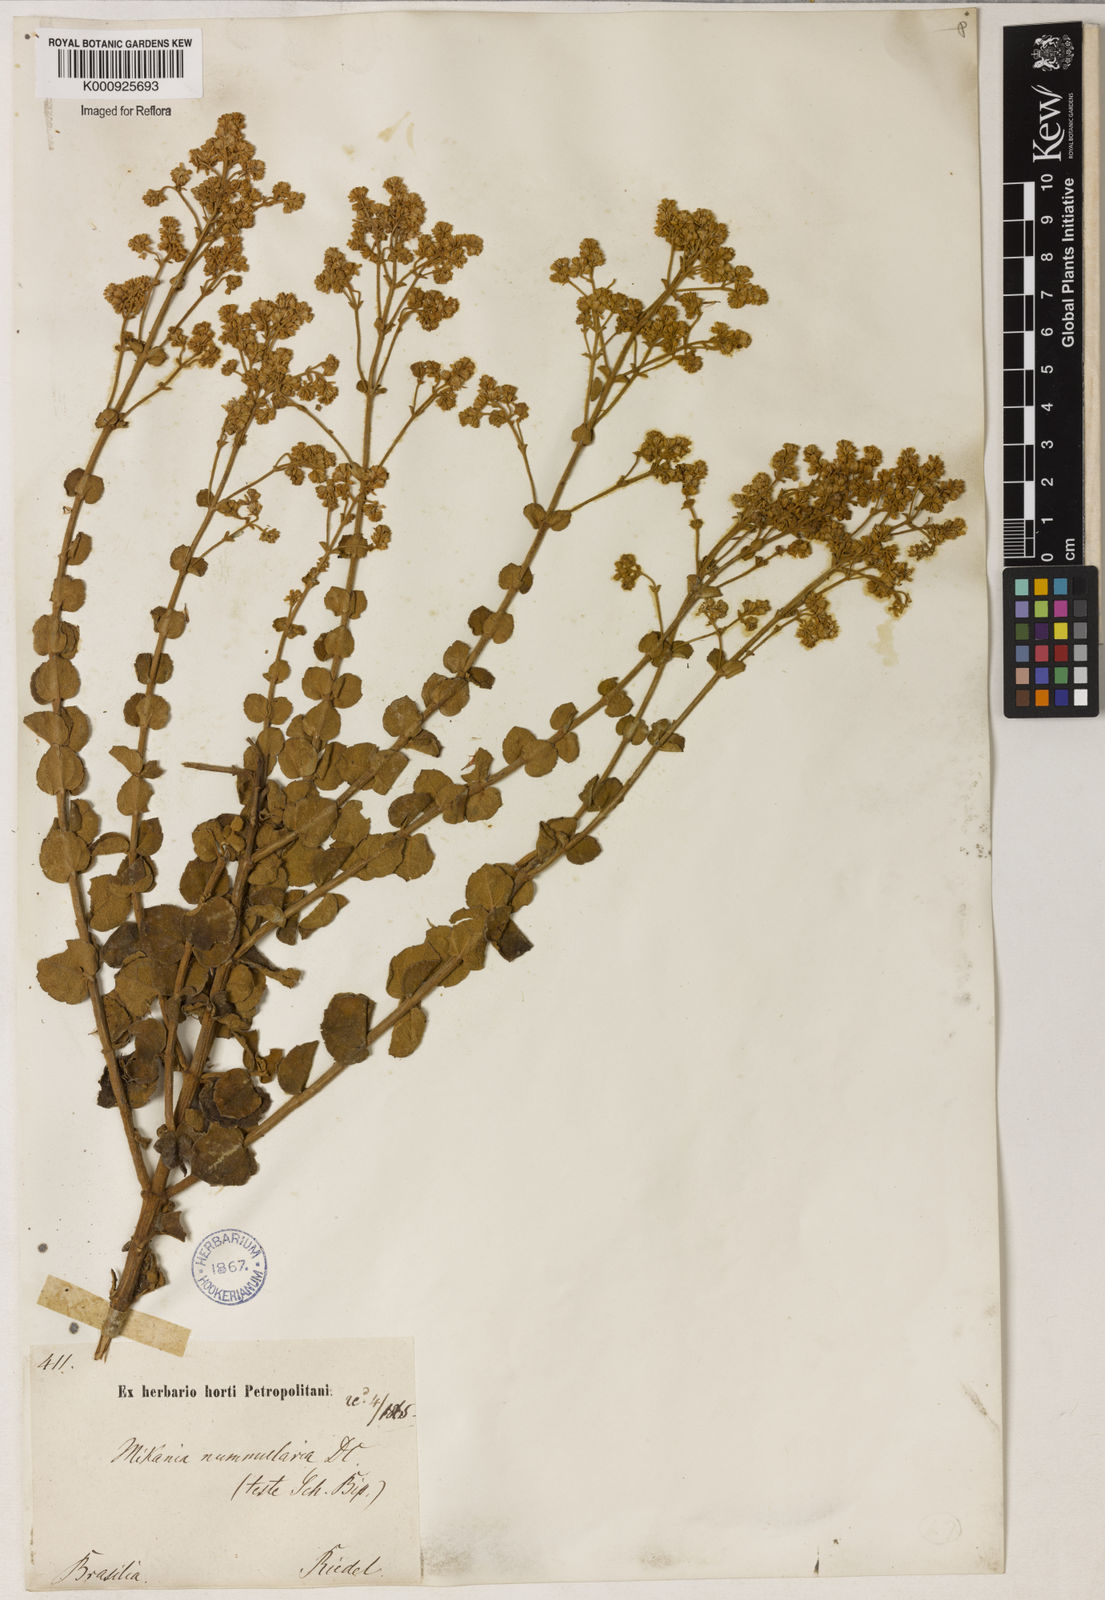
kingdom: Plantae
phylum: Tracheophyta
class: Magnoliopsida
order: Asterales
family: Asteraceae
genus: Mikania
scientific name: Mikania nummularia
